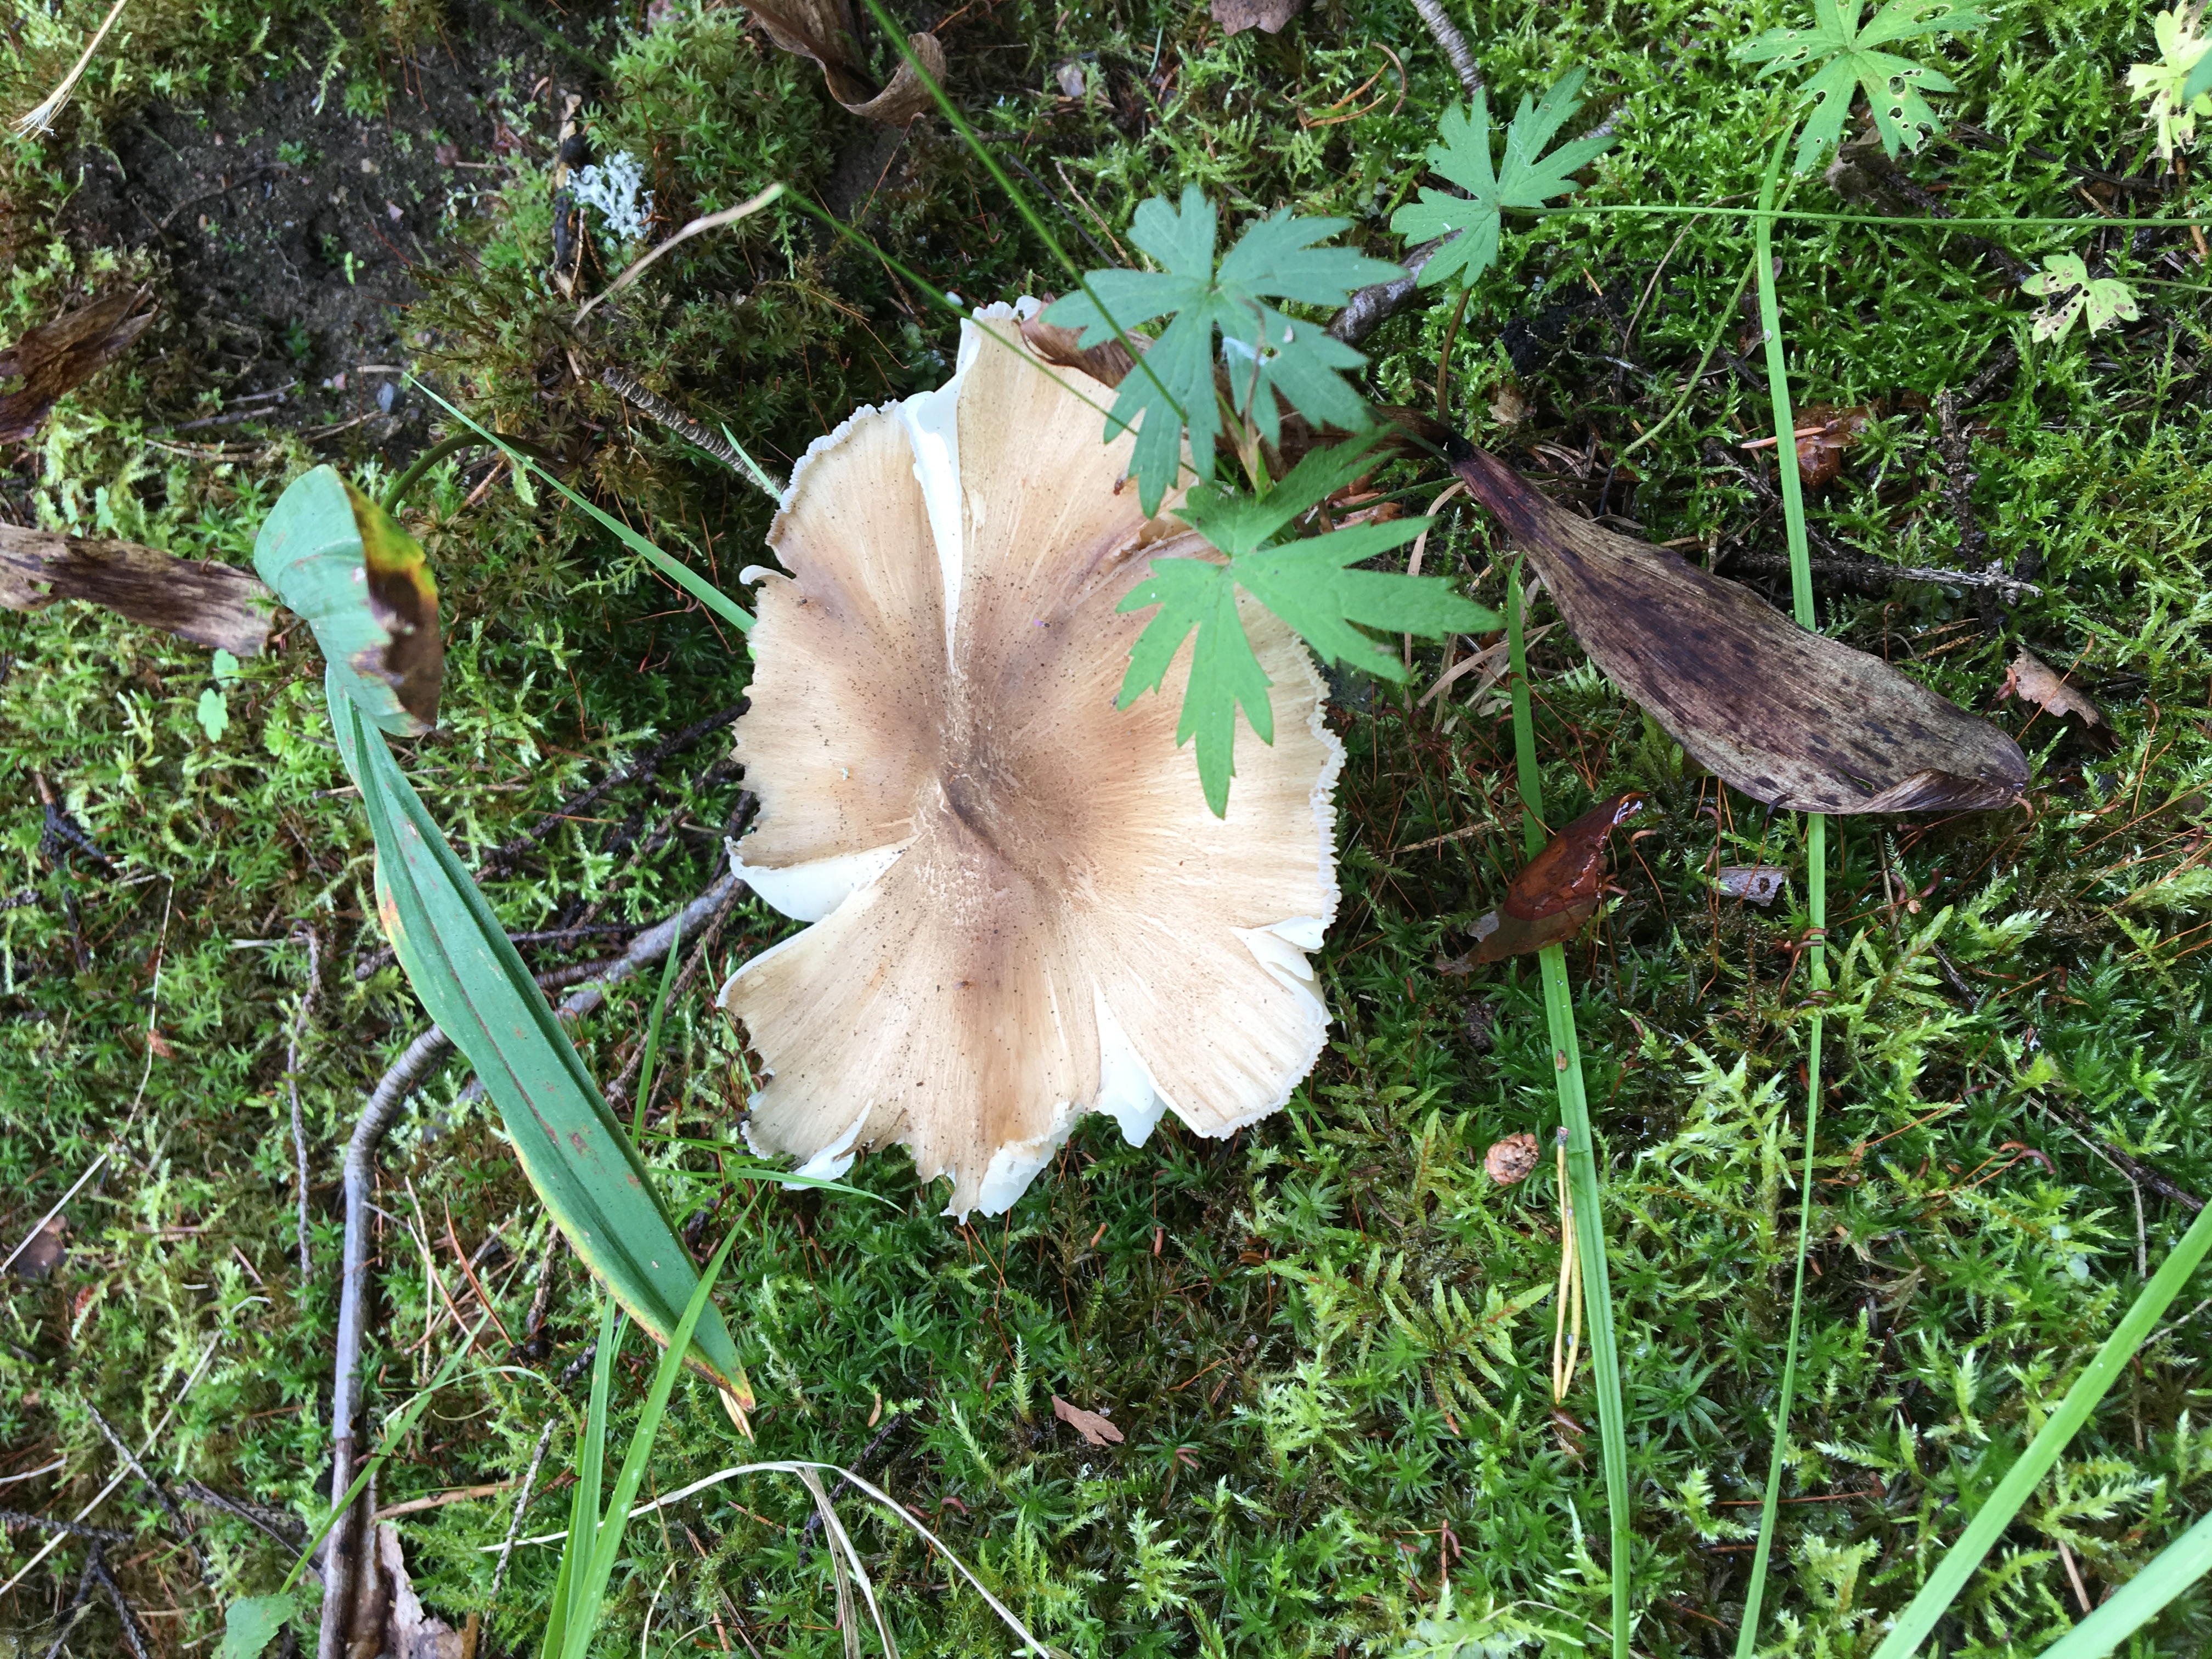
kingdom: Fungi
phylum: Basidiomycota
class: Agaricomycetes
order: Agaricales
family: Tricholomataceae
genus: Megacollybia
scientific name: Megacollybia platyphylla
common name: Whitelaced shank
